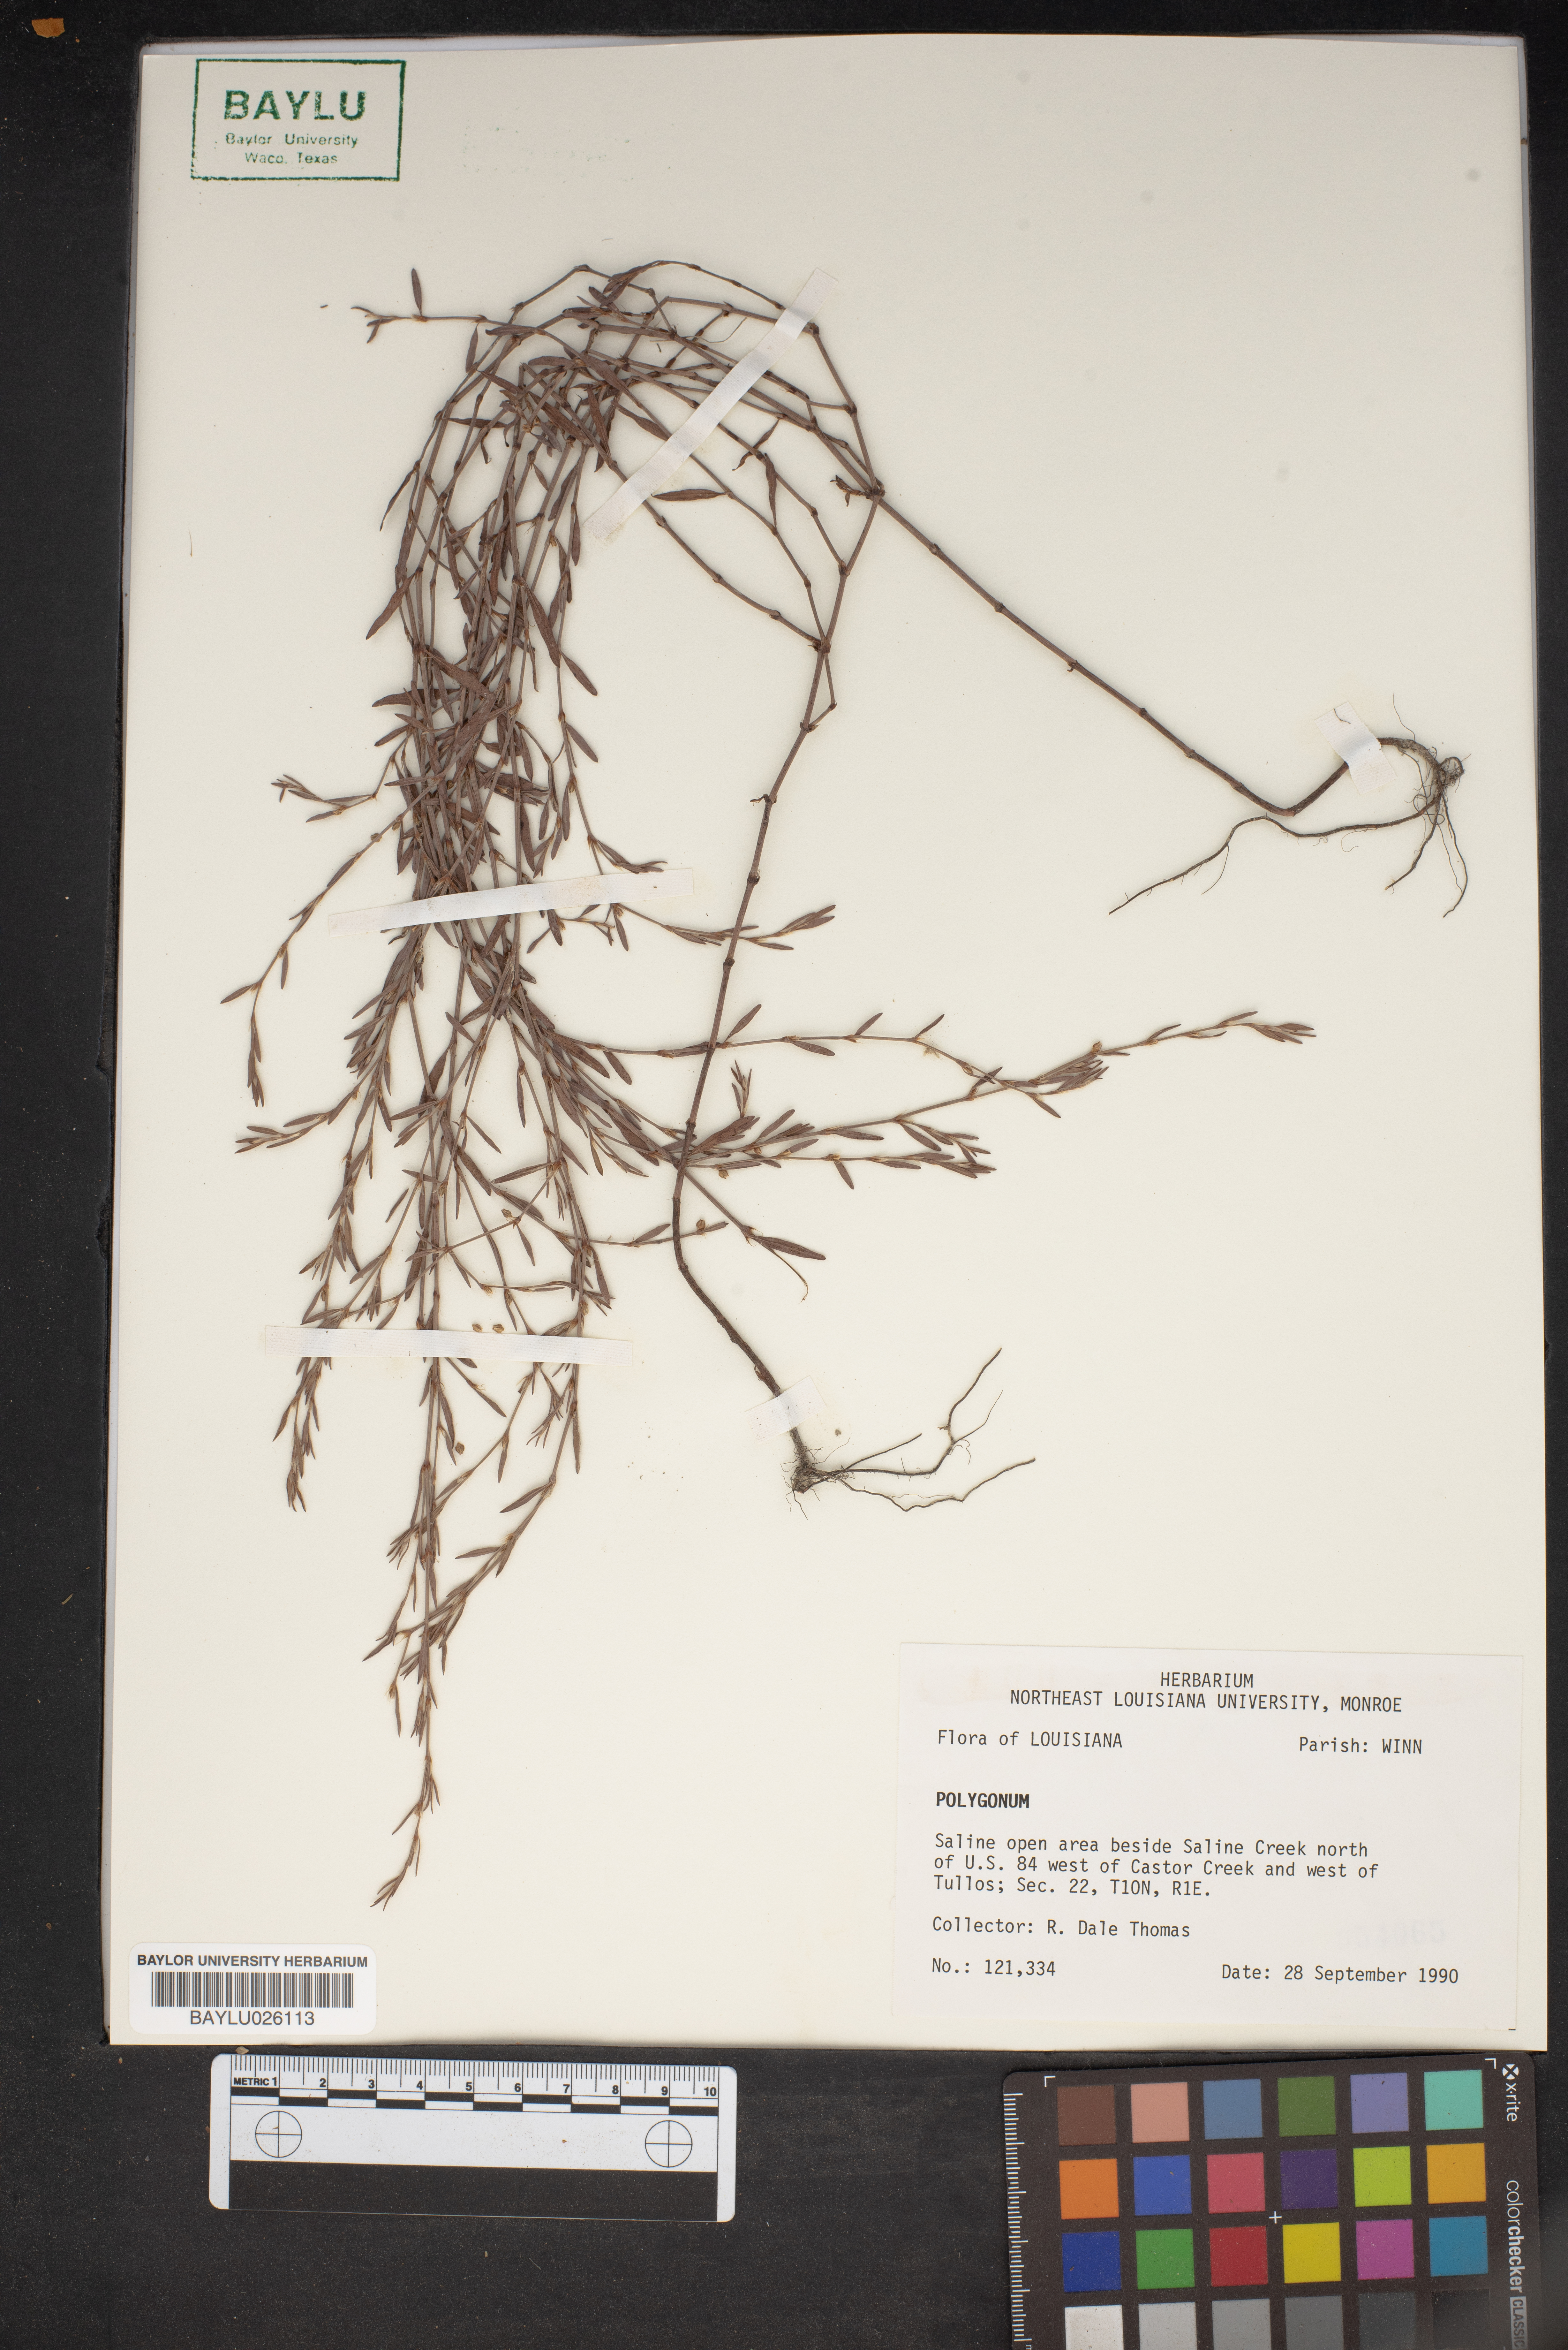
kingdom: Plantae
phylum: Tracheophyta
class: Magnoliopsida
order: Caryophyllales
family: Polygonaceae
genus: Polygonum
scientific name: Polygonum
